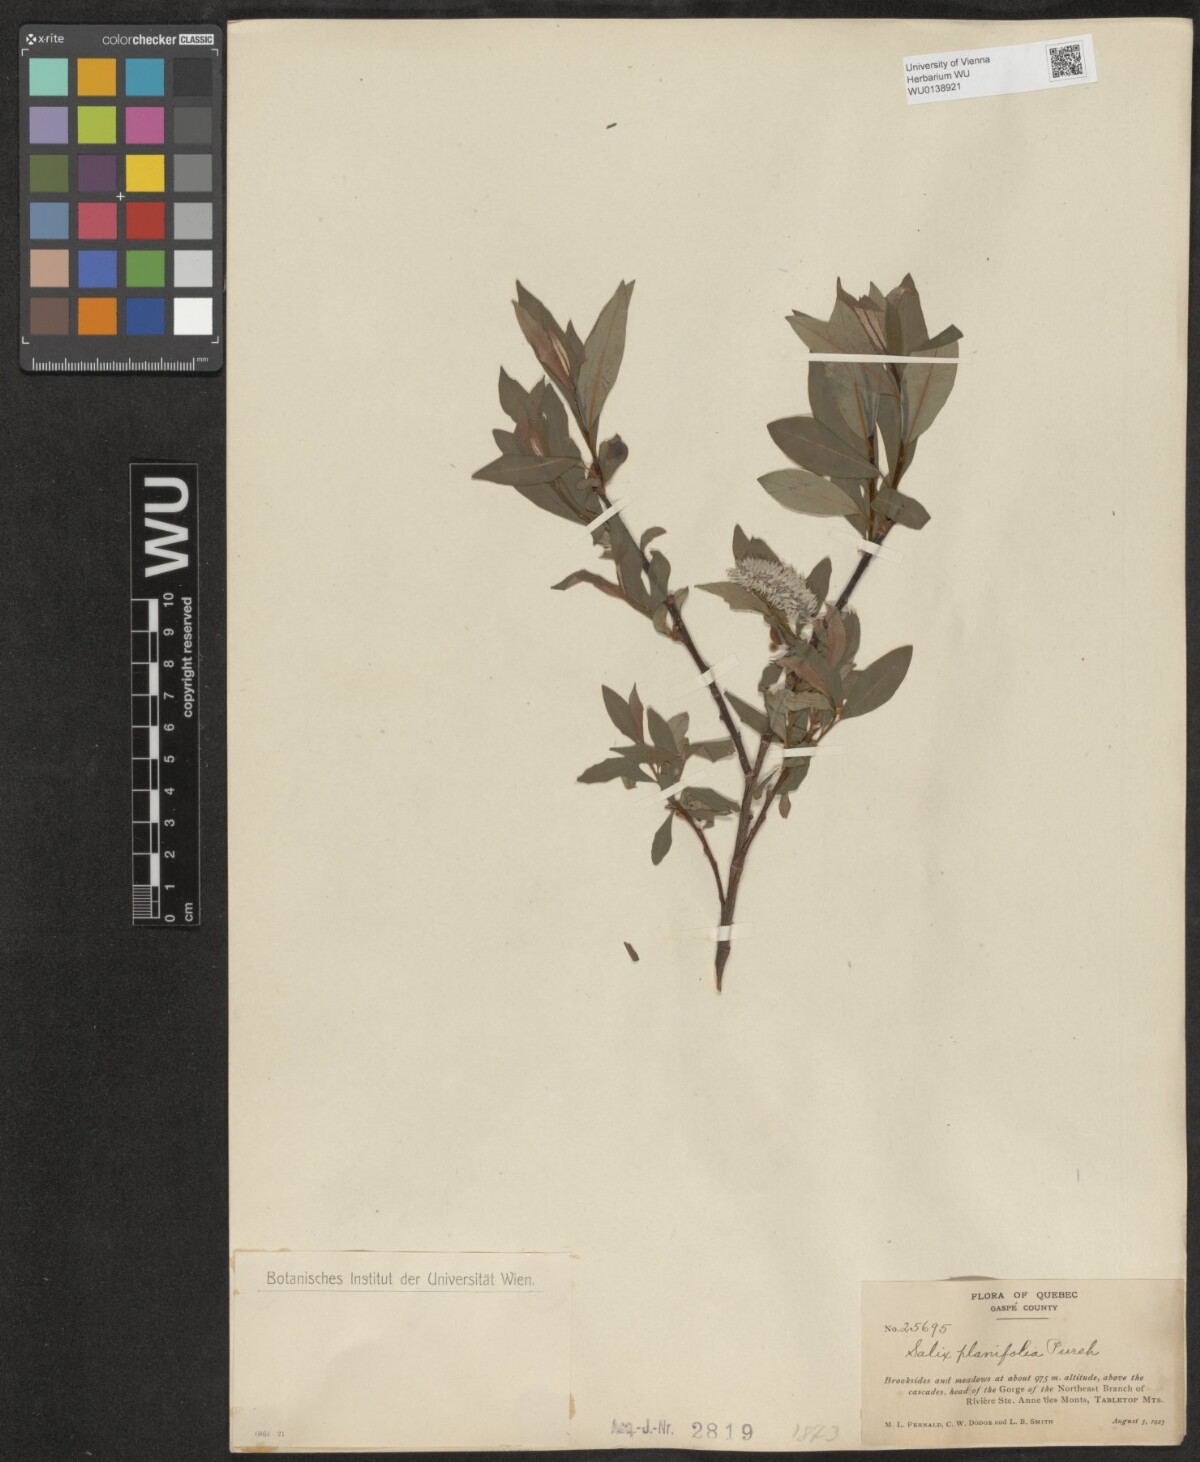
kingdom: Plantae
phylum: Tracheophyta
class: Magnoliopsida
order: Malpighiales
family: Salicaceae
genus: Salix
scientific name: Salix planifolia
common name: Mountain willow
